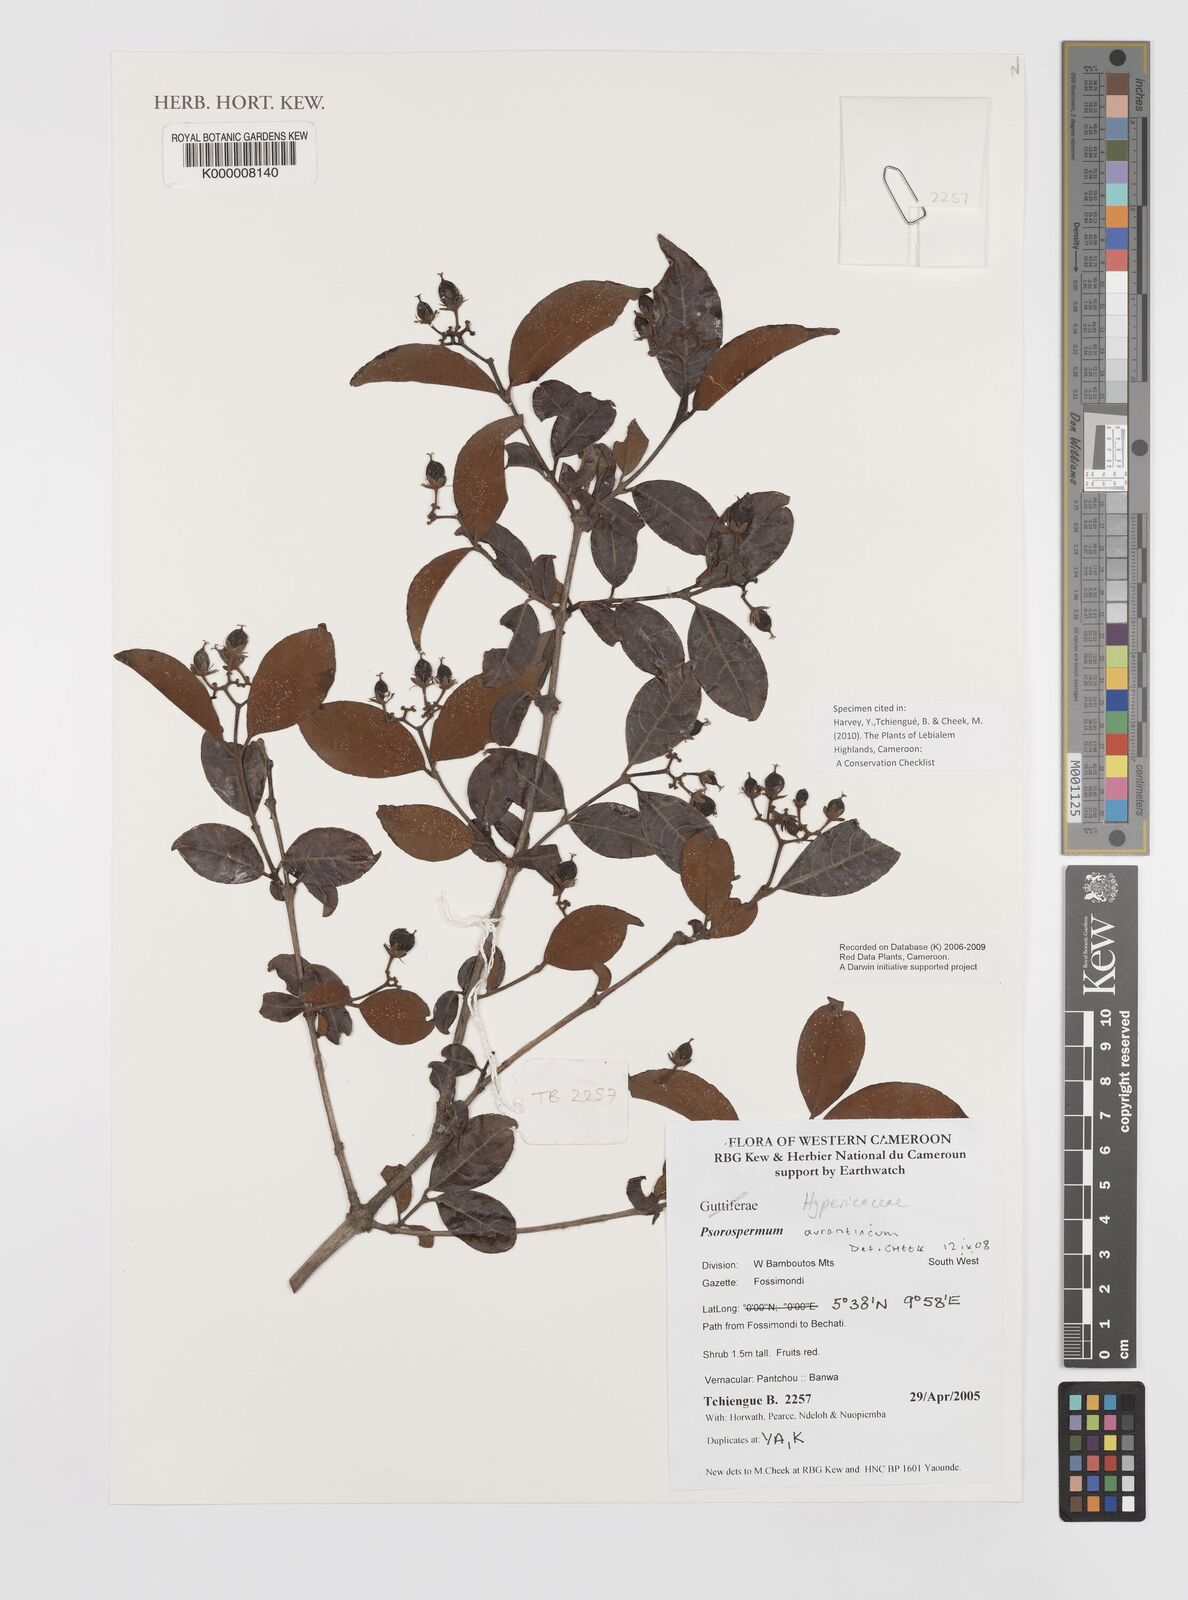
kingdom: Plantae
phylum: Tracheophyta
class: Magnoliopsida
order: Malpighiales
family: Hypericaceae
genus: Psorospermum
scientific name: Psorospermum aurantiacum
